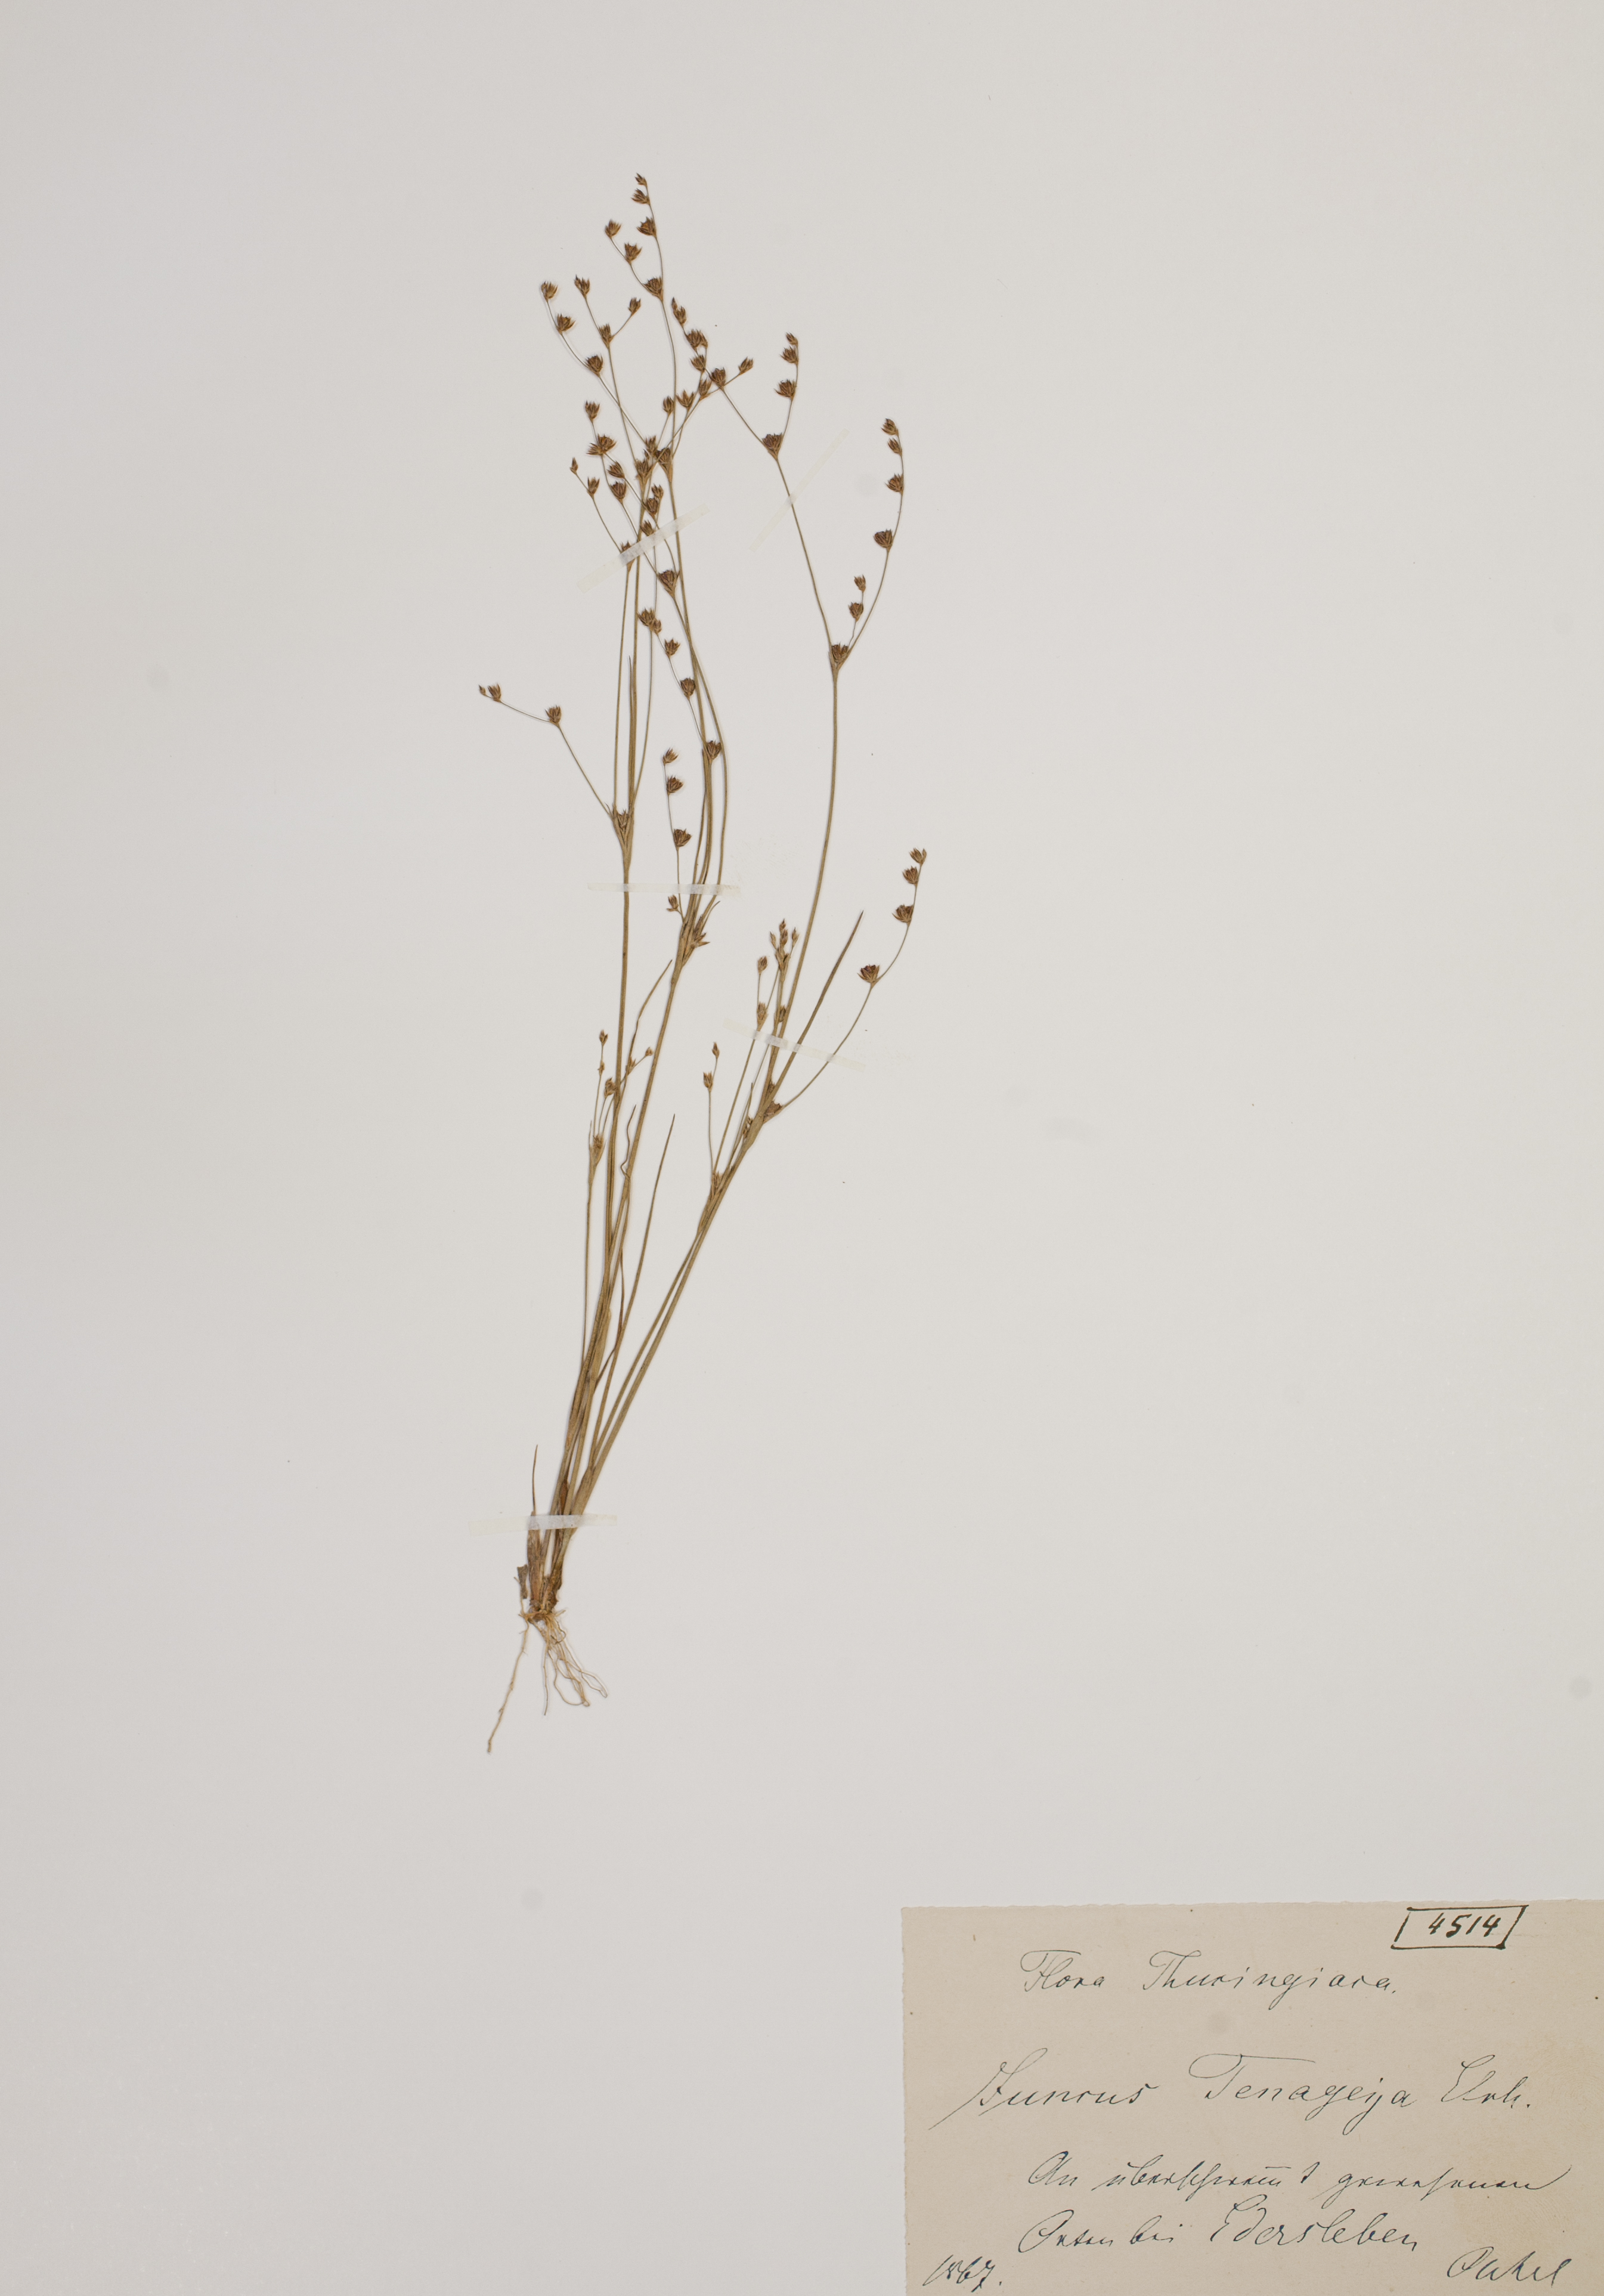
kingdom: Plantae
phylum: Tracheophyta
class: Liliopsida
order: Poales
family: Juncaceae
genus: Juncus
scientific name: Juncus tenageia
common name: Sand rush
